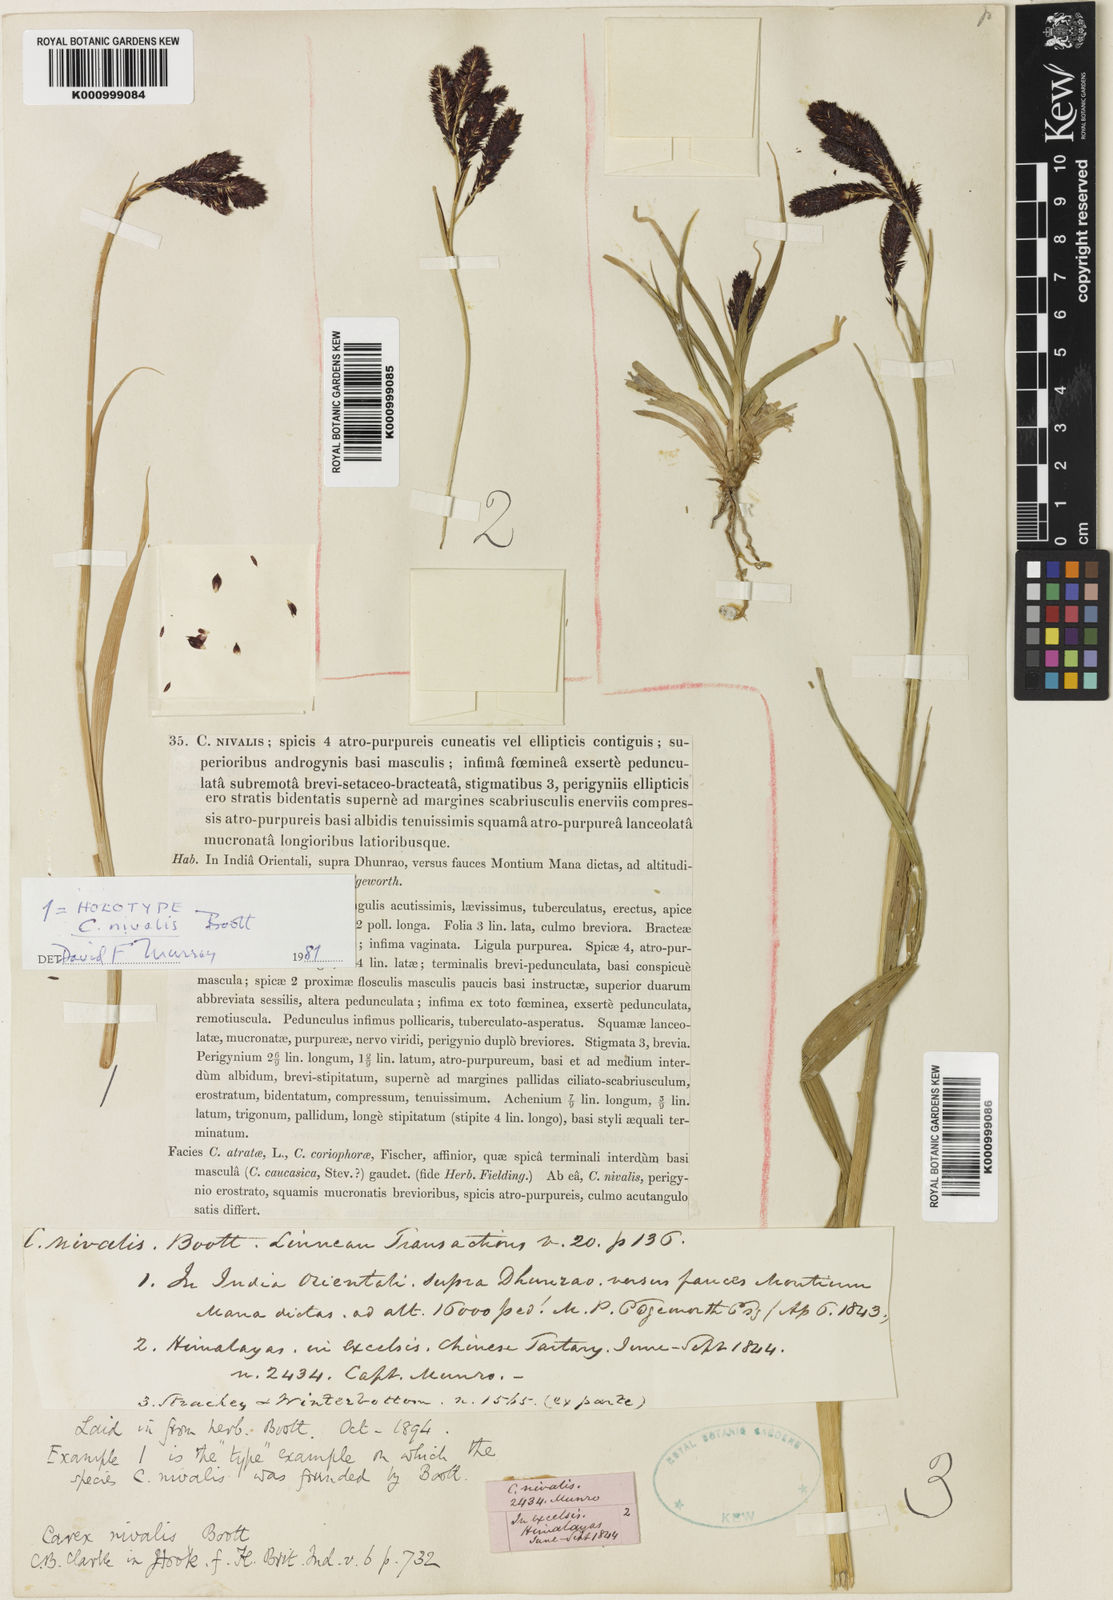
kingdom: Plantae
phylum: Tracheophyta
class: Liliopsida
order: Poales
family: Cyperaceae
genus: Carex
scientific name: Carex nivalis
